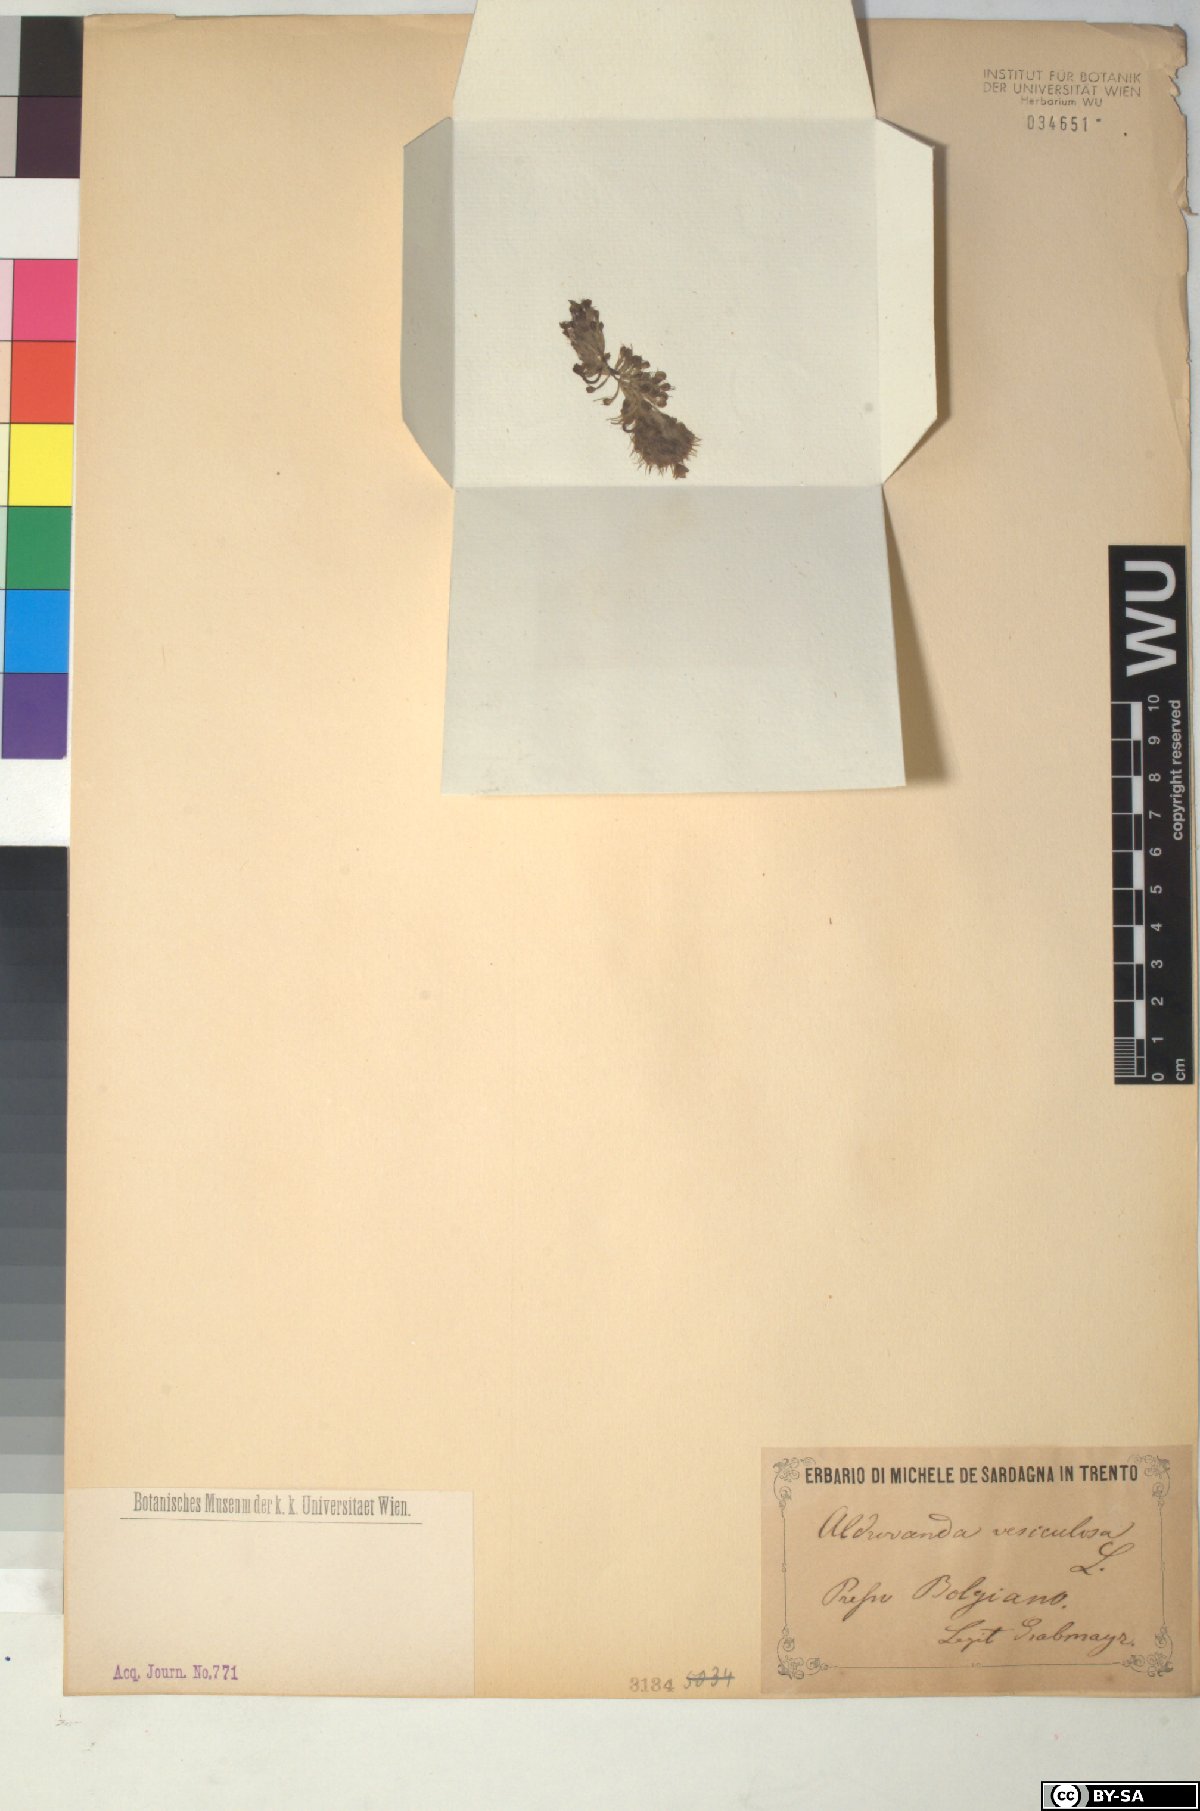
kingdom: Plantae
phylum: Tracheophyta
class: Magnoliopsida
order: Caryophyllales
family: Droseraceae
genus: Aldrovanda
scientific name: Aldrovanda vesiculosa
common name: Waterwheel plant
